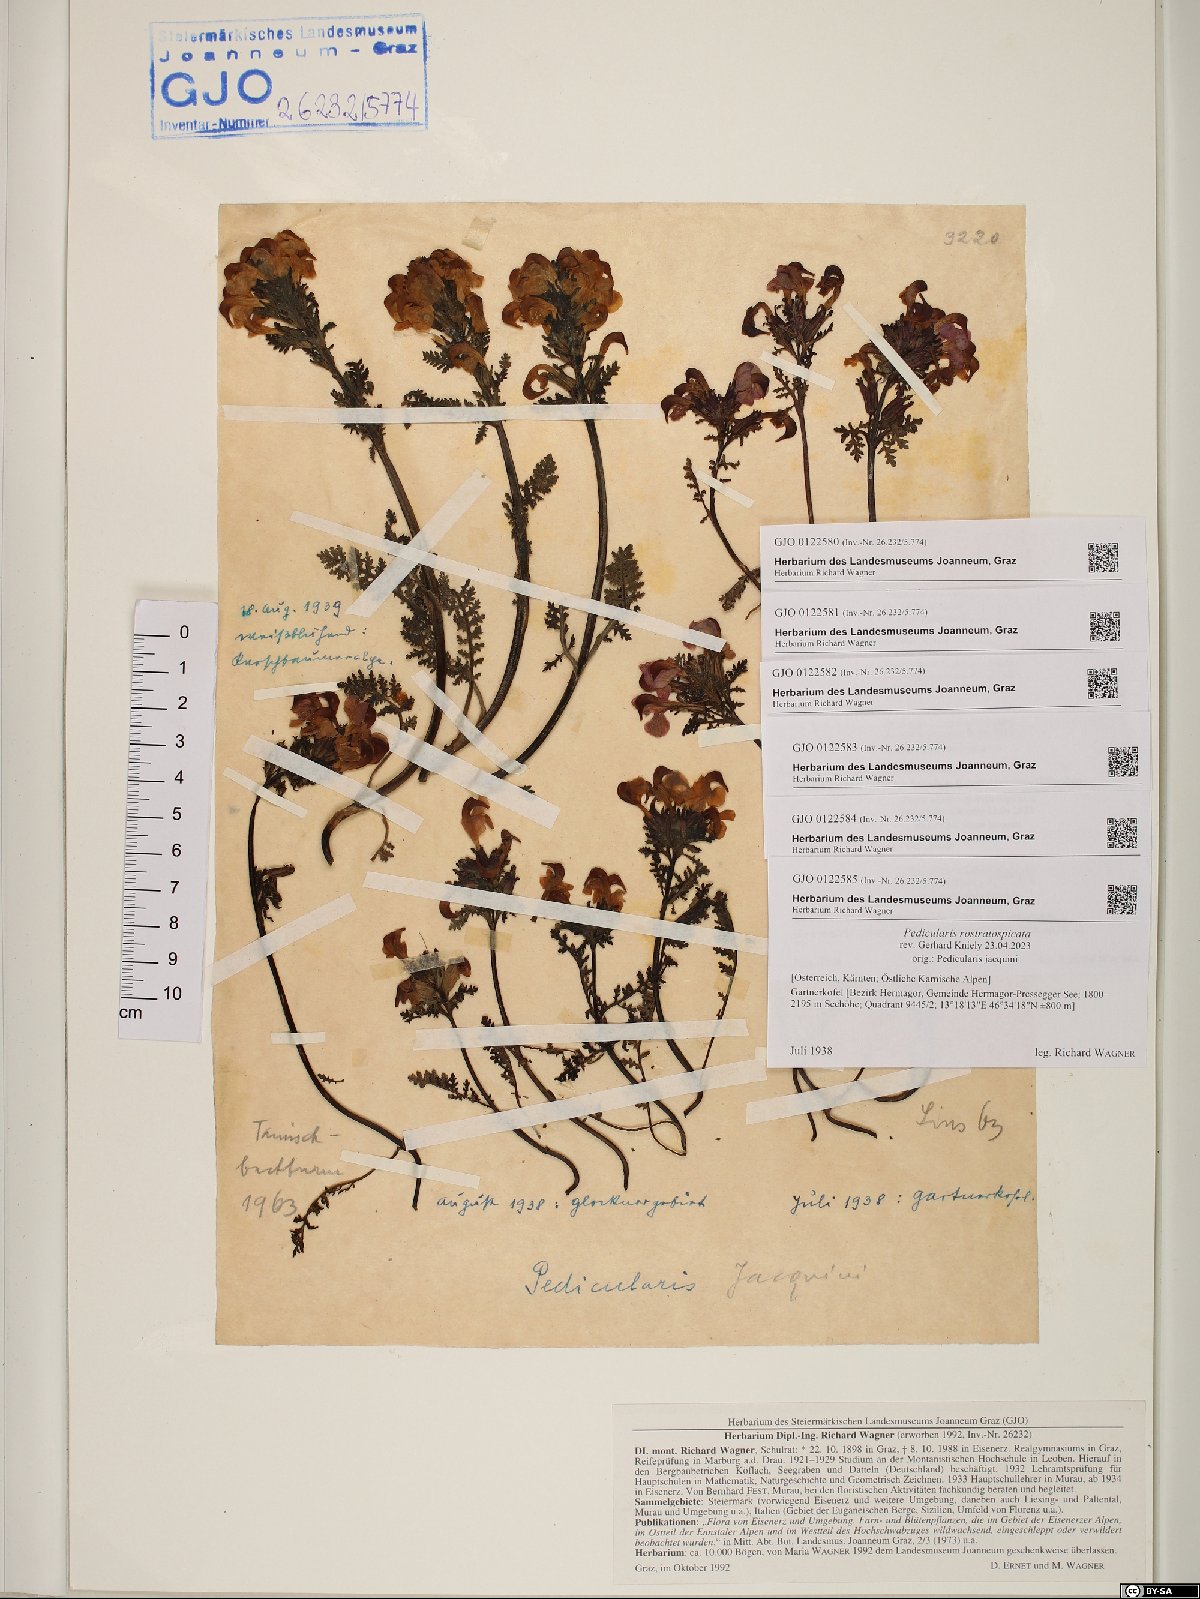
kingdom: Plantae
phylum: Tracheophyta
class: Magnoliopsida
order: Lamiales
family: Orobanchaceae
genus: Pedicularis
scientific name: Pedicularis rostratocapitata
